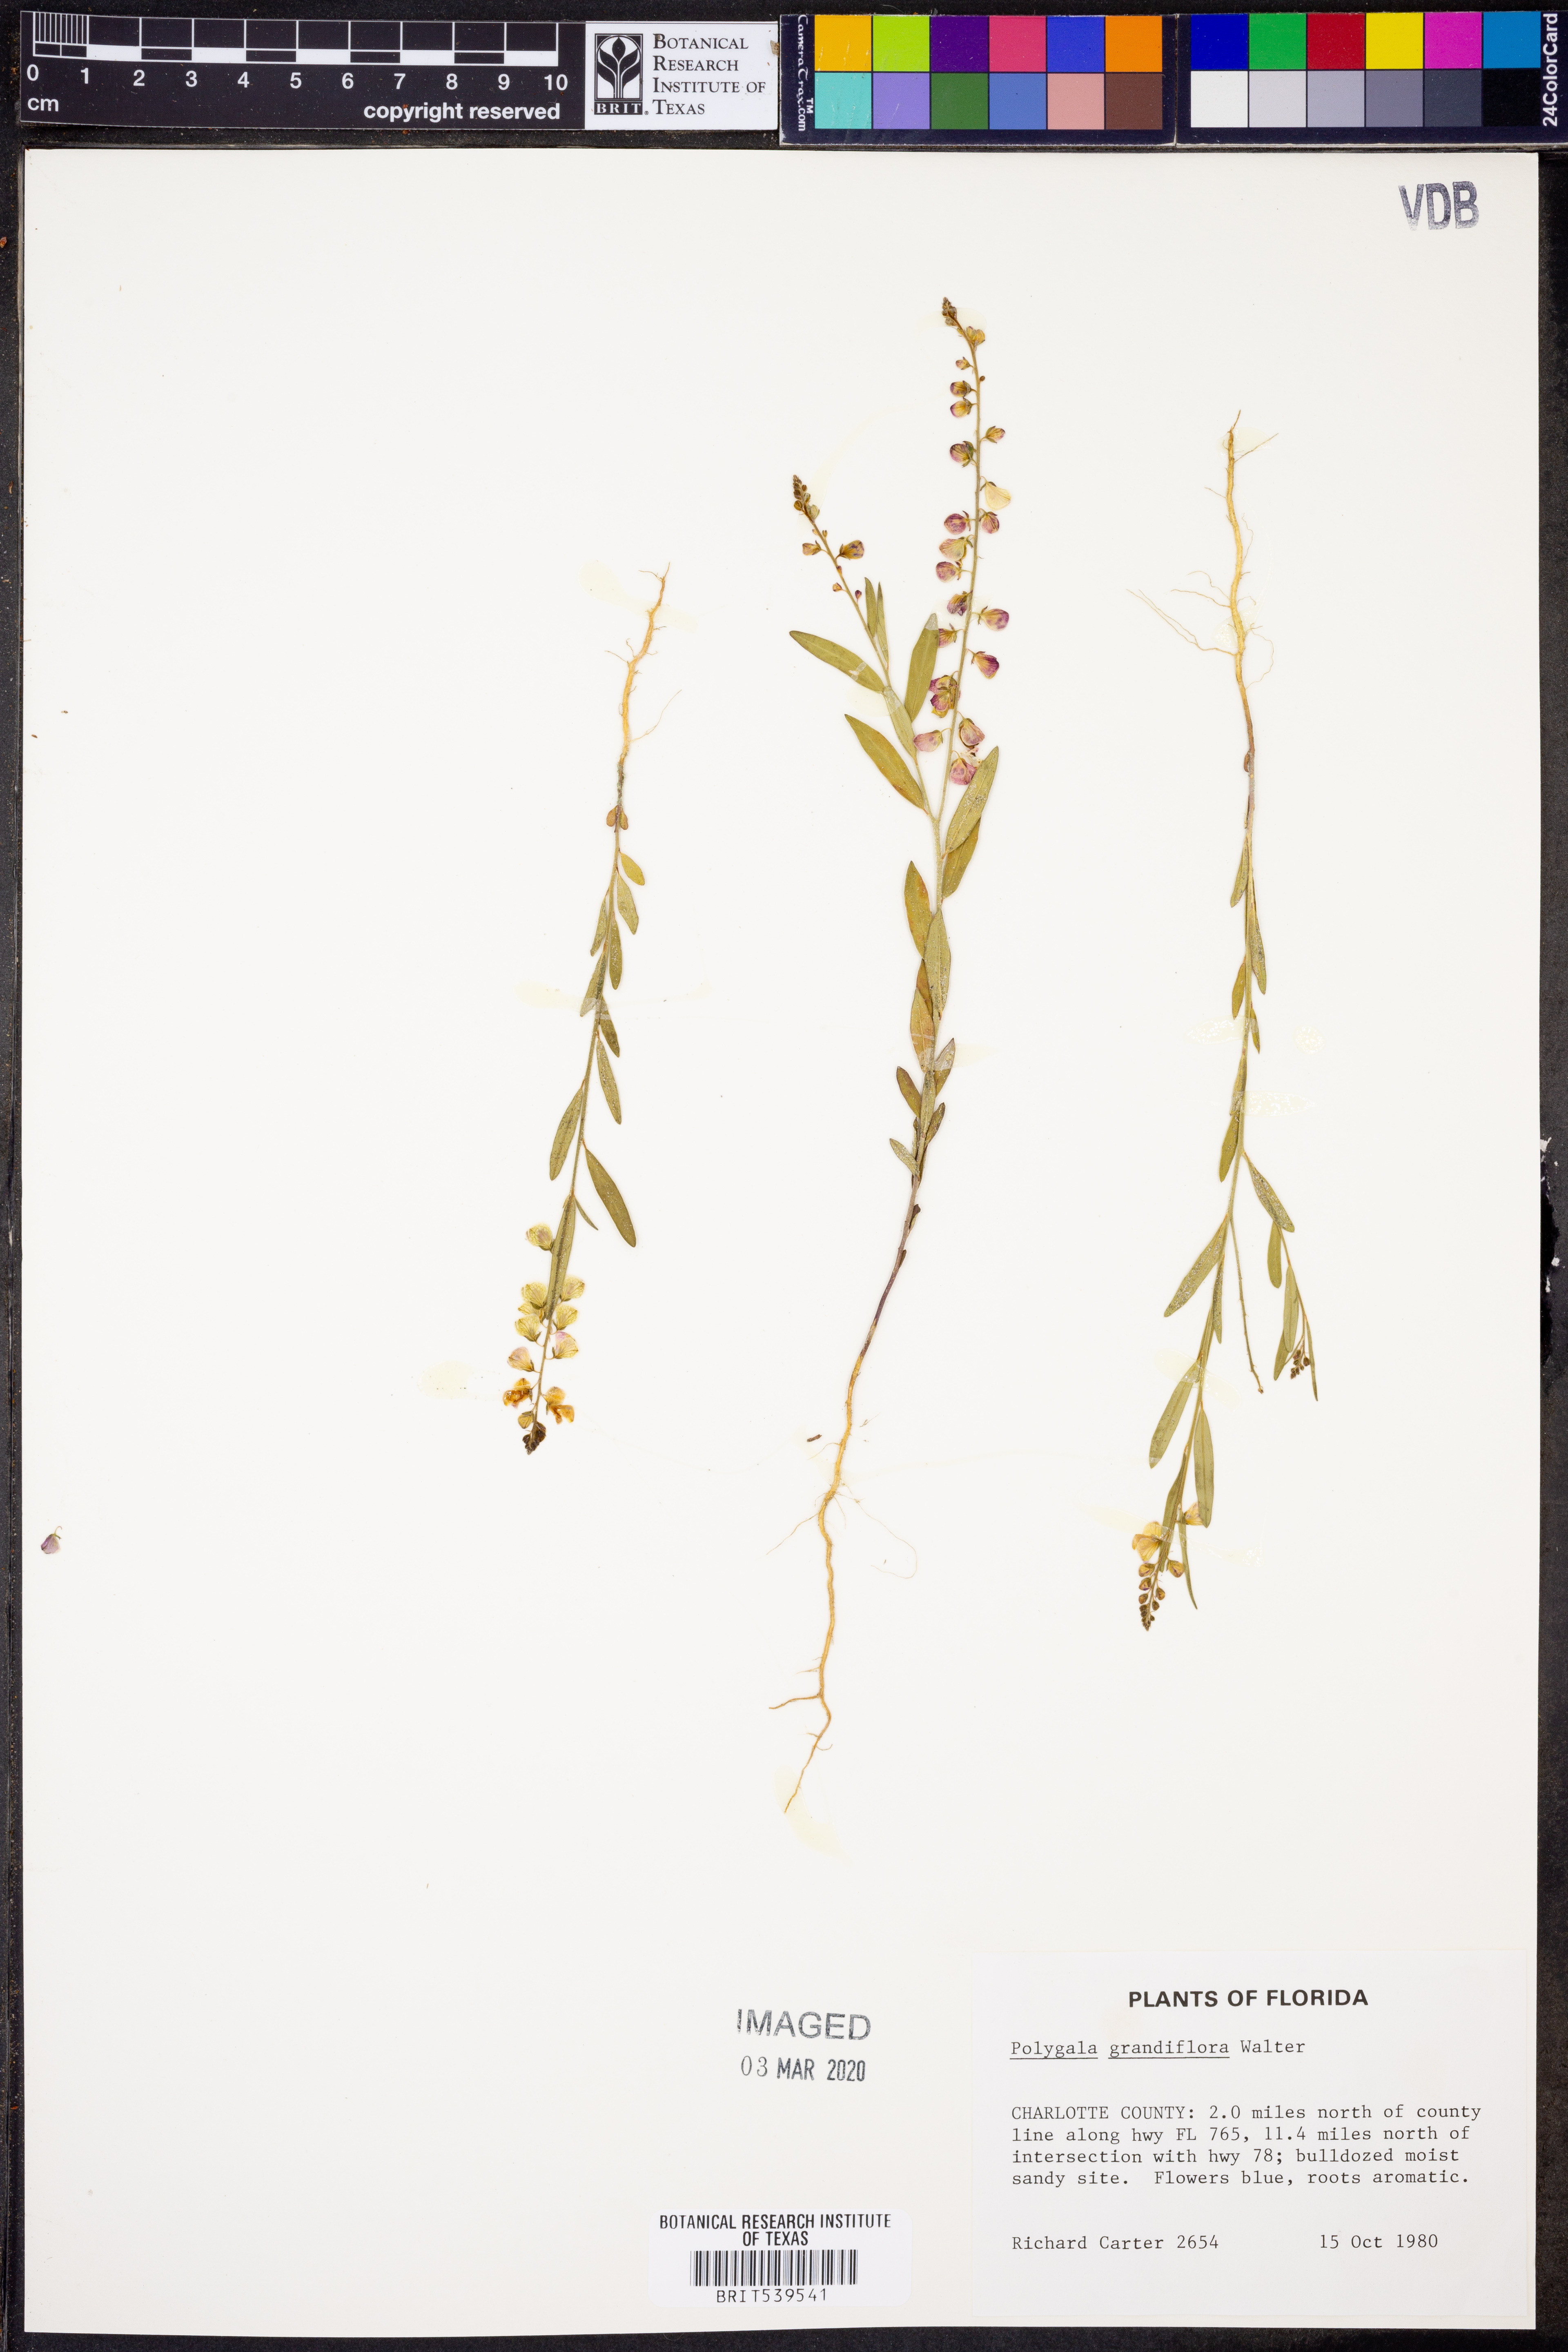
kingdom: Plantae
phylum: Tracheophyta
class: Magnoliopsida
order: Fabales
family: Polygalaceae
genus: Asemeia
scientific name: Asemeia grandiflora
